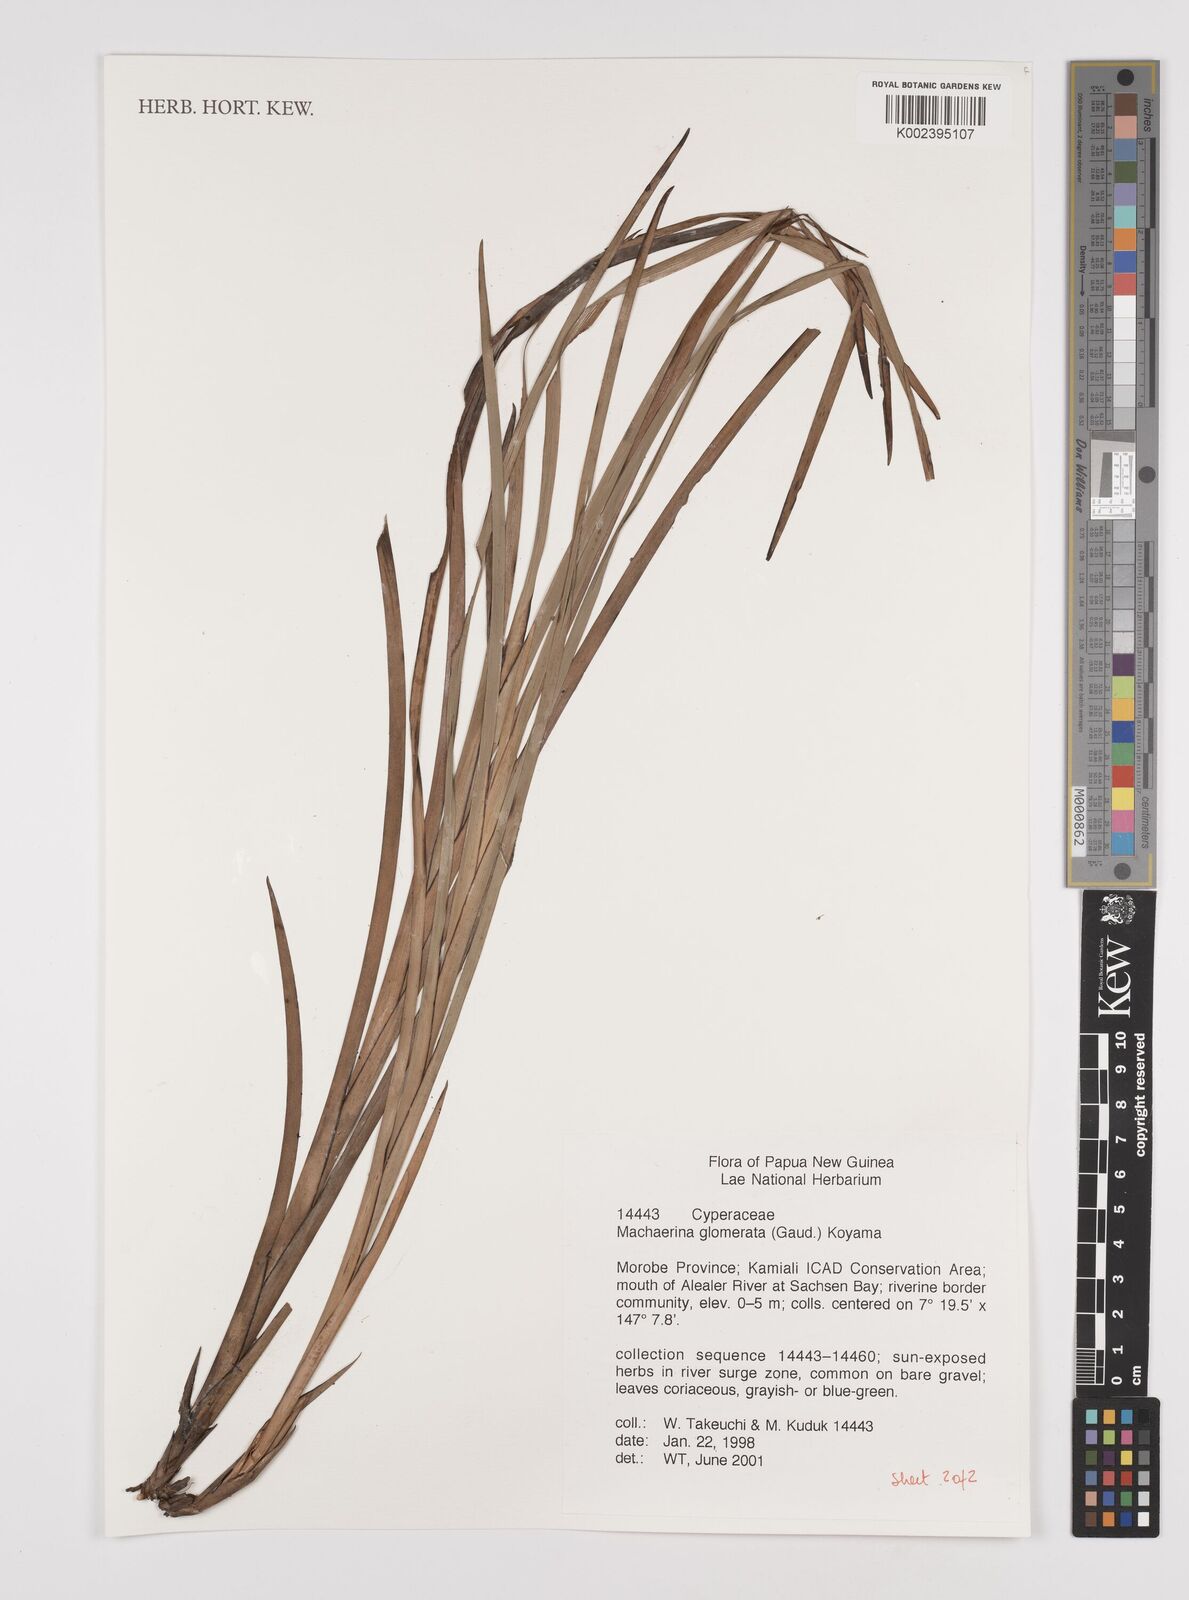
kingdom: Plantae
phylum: Tracheophyta
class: Liliopsida
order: Poales
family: Cyperaceae
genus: Machaerina
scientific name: Machaerina glomerata
